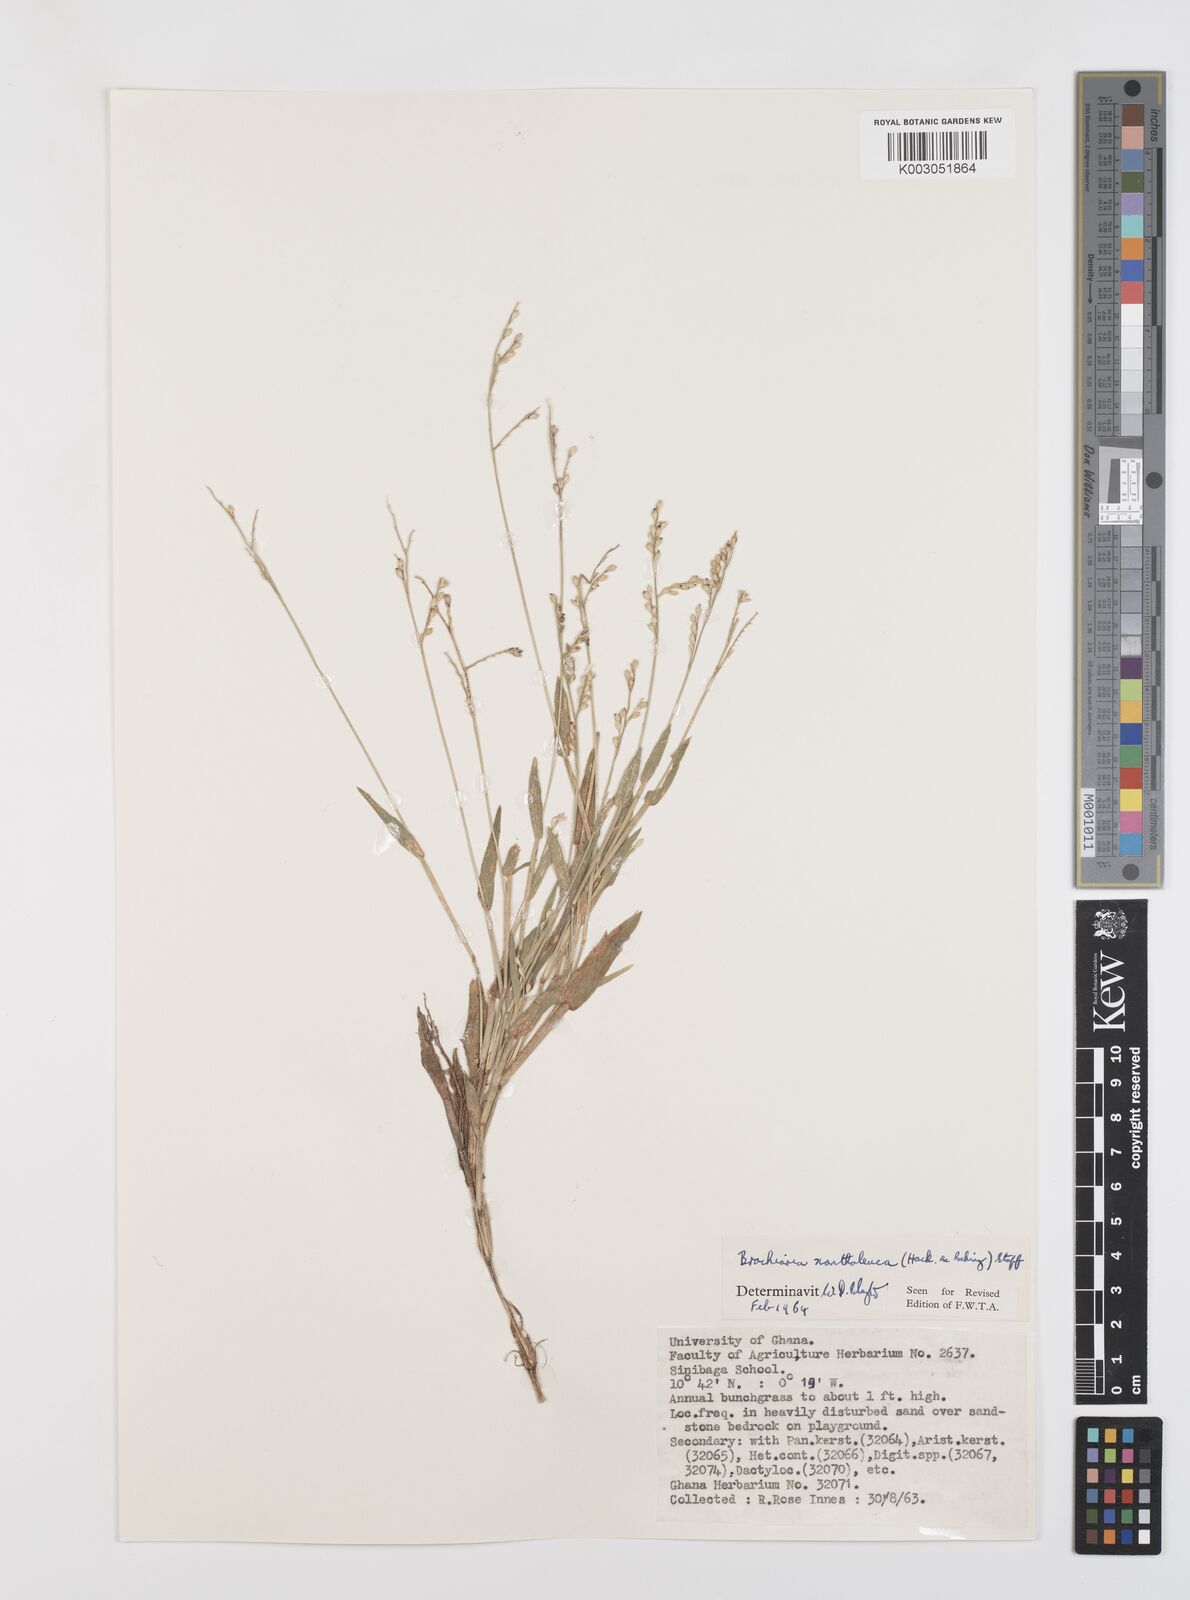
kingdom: Plantae
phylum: Tracheophyta
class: Liliopsida
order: Poales
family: Poaceae
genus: Urochloa
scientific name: Urochloa xantholeuca
